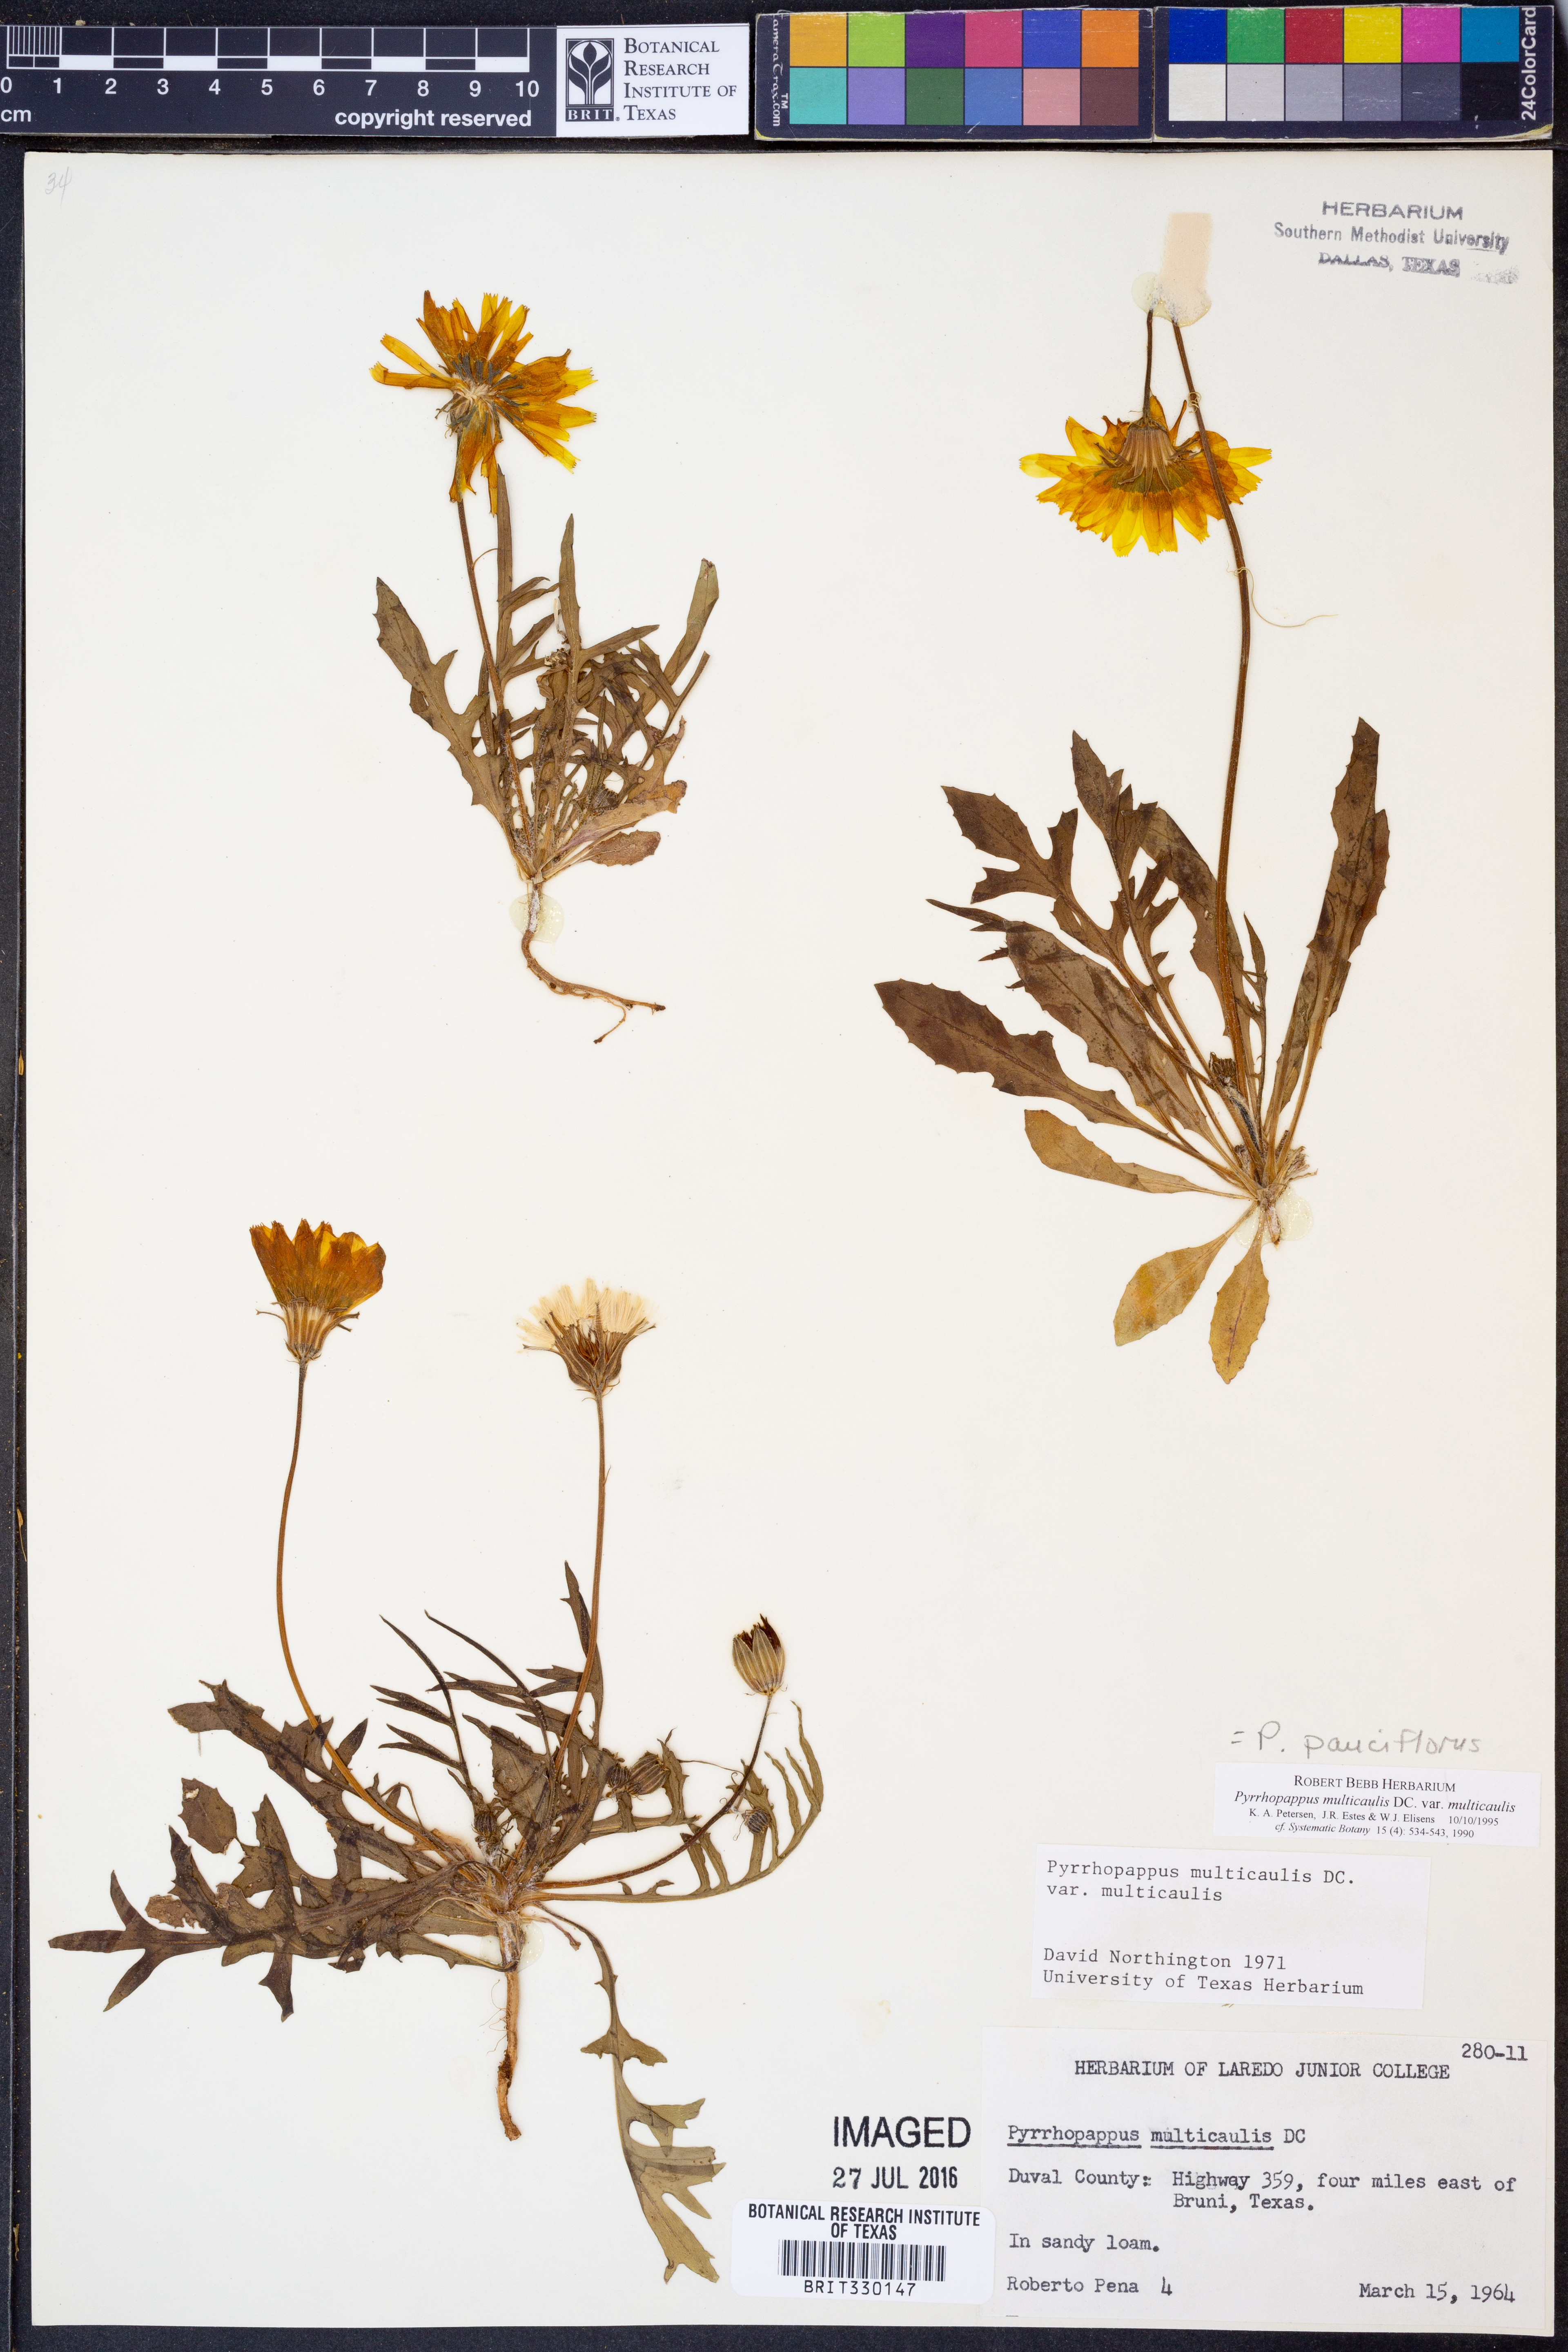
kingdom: Plantae
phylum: Tracheophyta
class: Magnoliopsida
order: Asterales
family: Asteraceae
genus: Pyrrhopappus
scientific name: Pyrrhopappus pauciflorus
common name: Texas false dandelion
